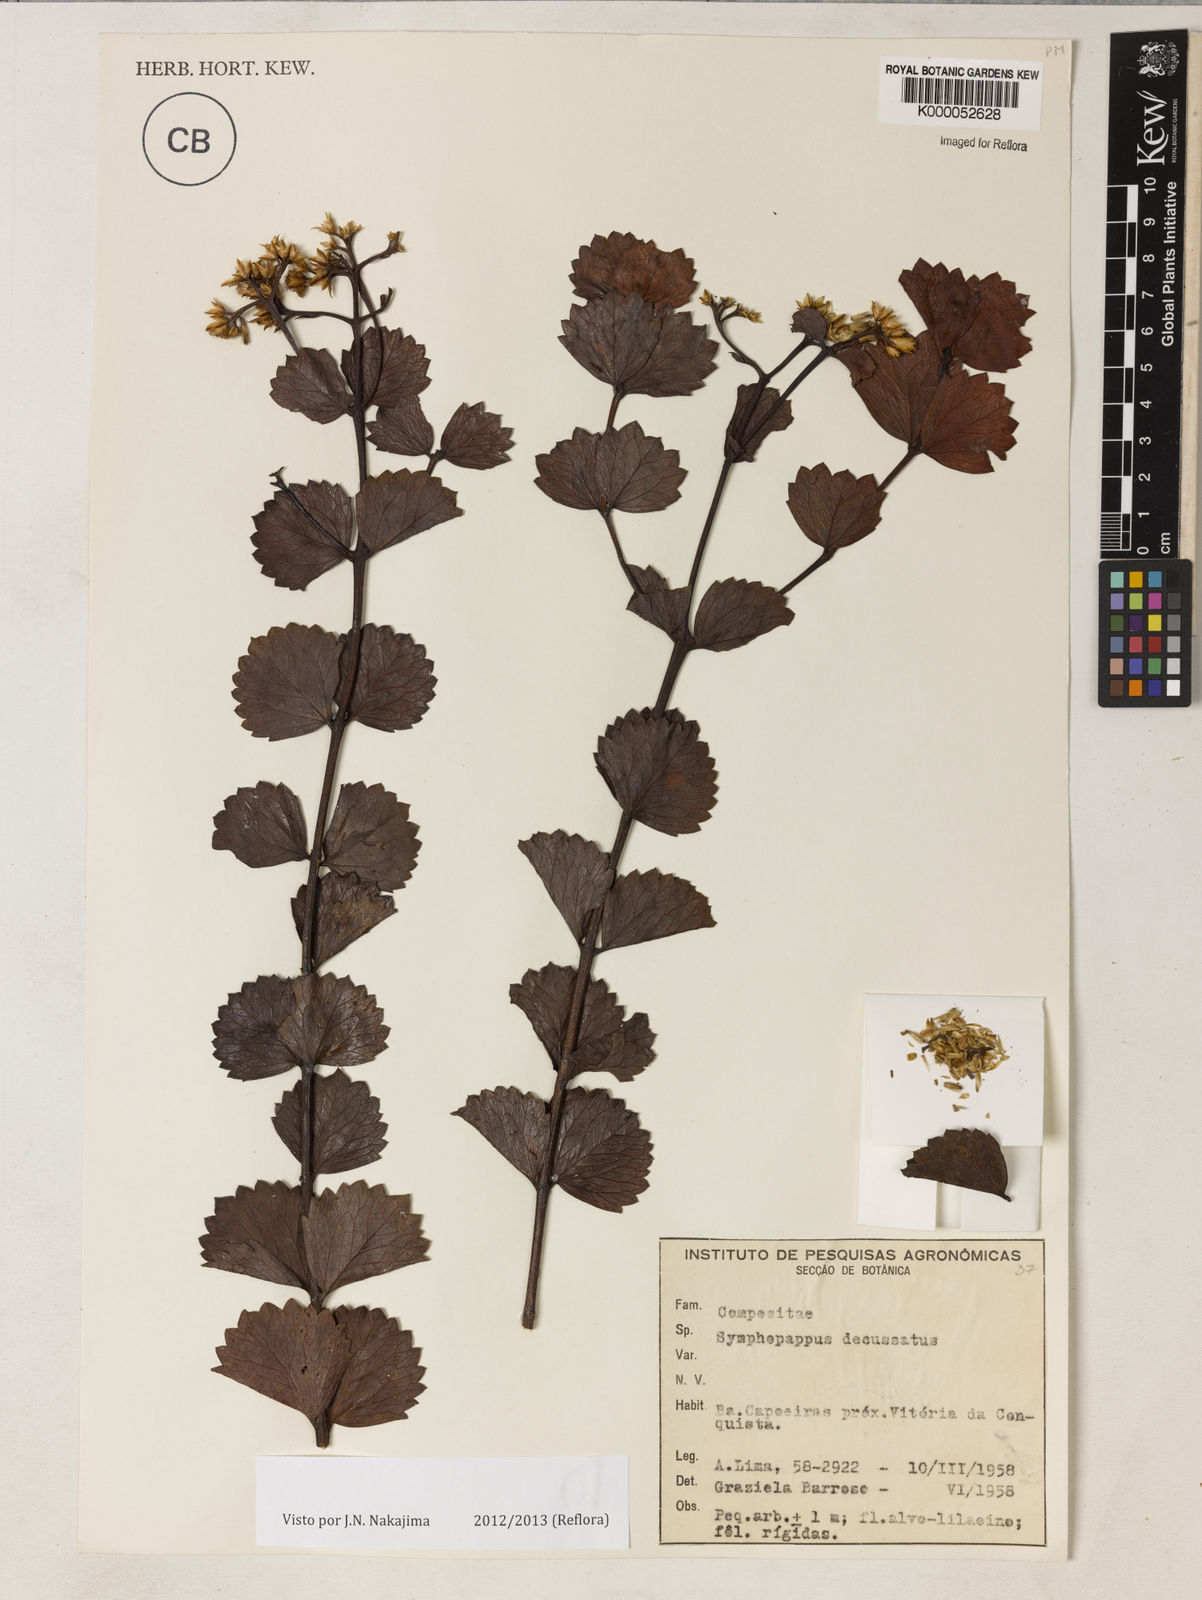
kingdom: Plantae
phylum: Tracheophyta
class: Magnoliopsida
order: Asterales
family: Asteraceae
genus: Symphyopappus
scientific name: Symphyopappus decussatus
